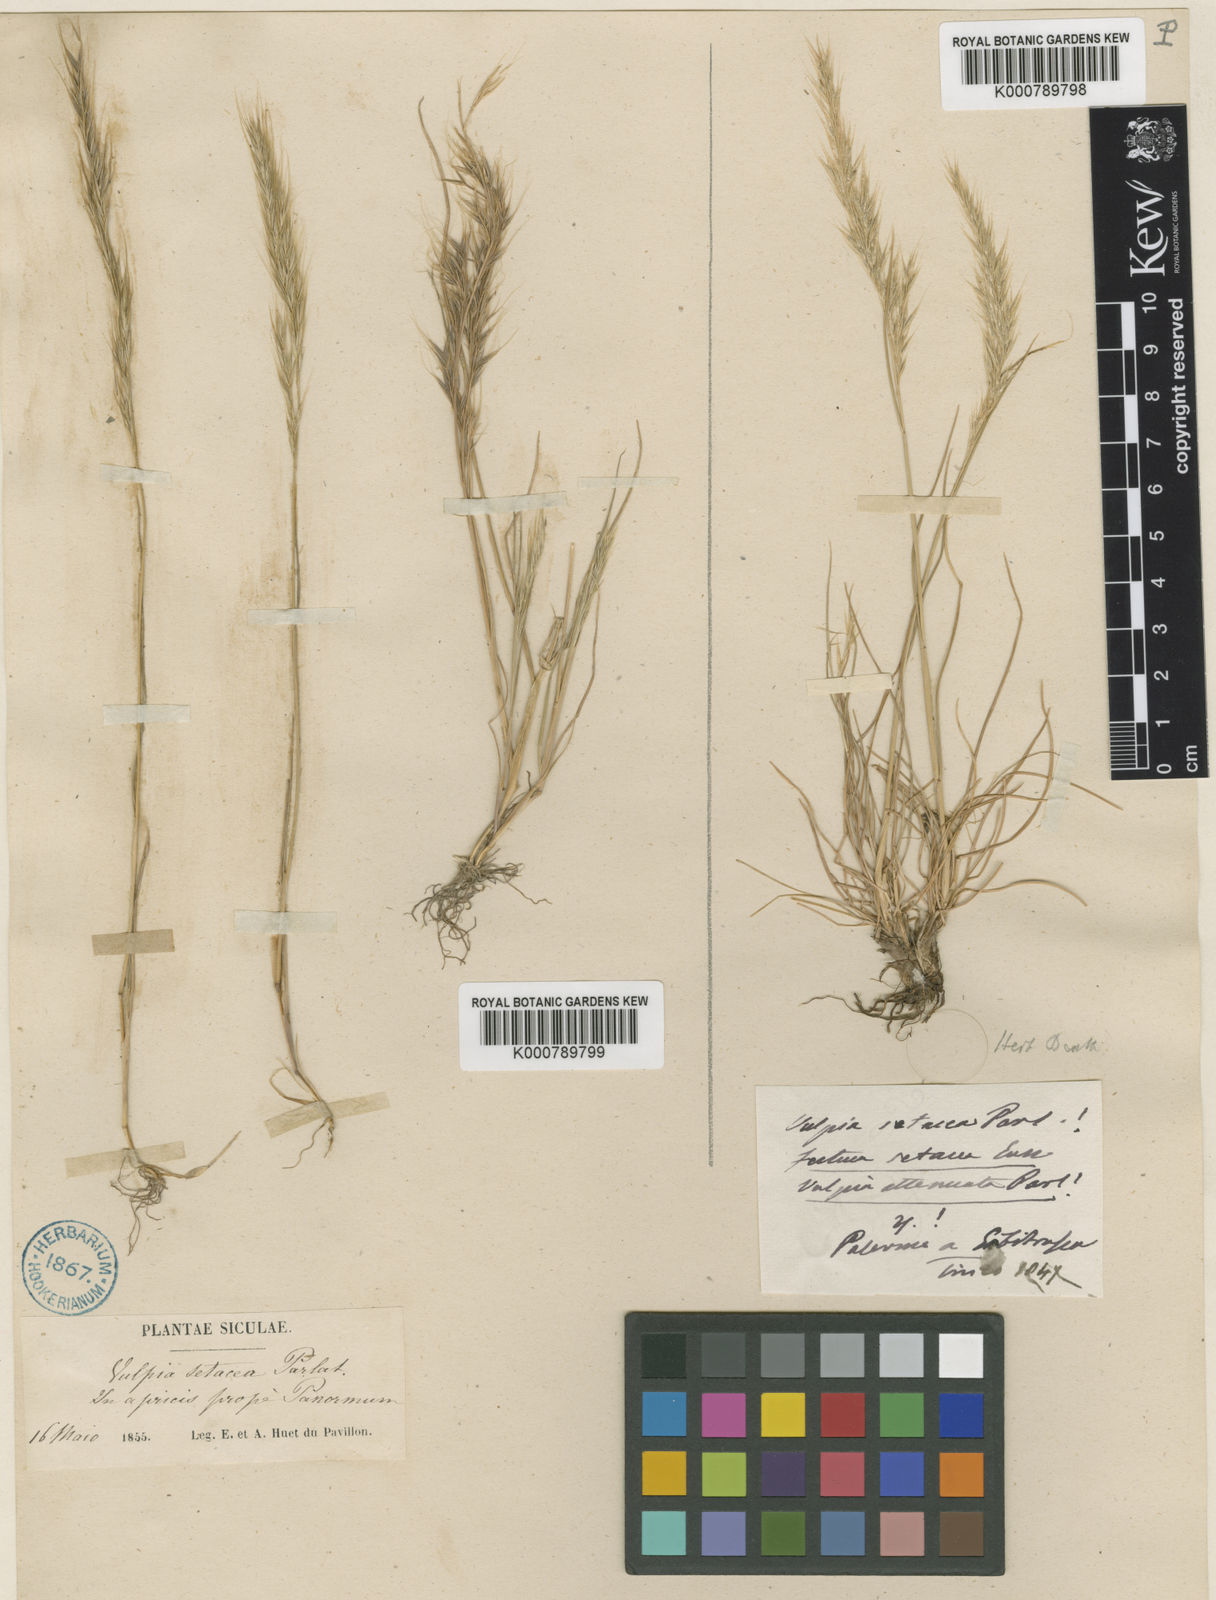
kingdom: Plantae
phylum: Tracheophyta
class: Liliopsida
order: Poales
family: Poaceae
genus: Festuca
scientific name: Festuca sicula
